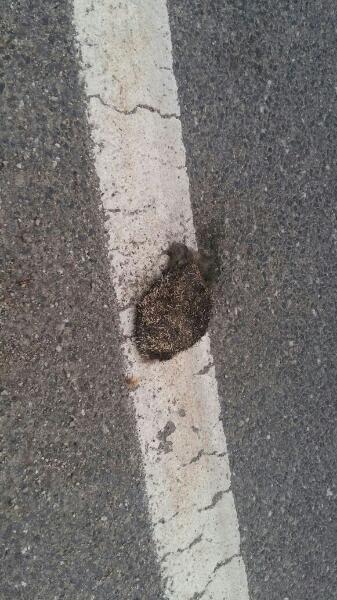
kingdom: Animalia
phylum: Chordata
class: Mammalia
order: Erinaceomorpha
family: Erinaceidae
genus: Erinaceus
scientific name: Erinaceus
